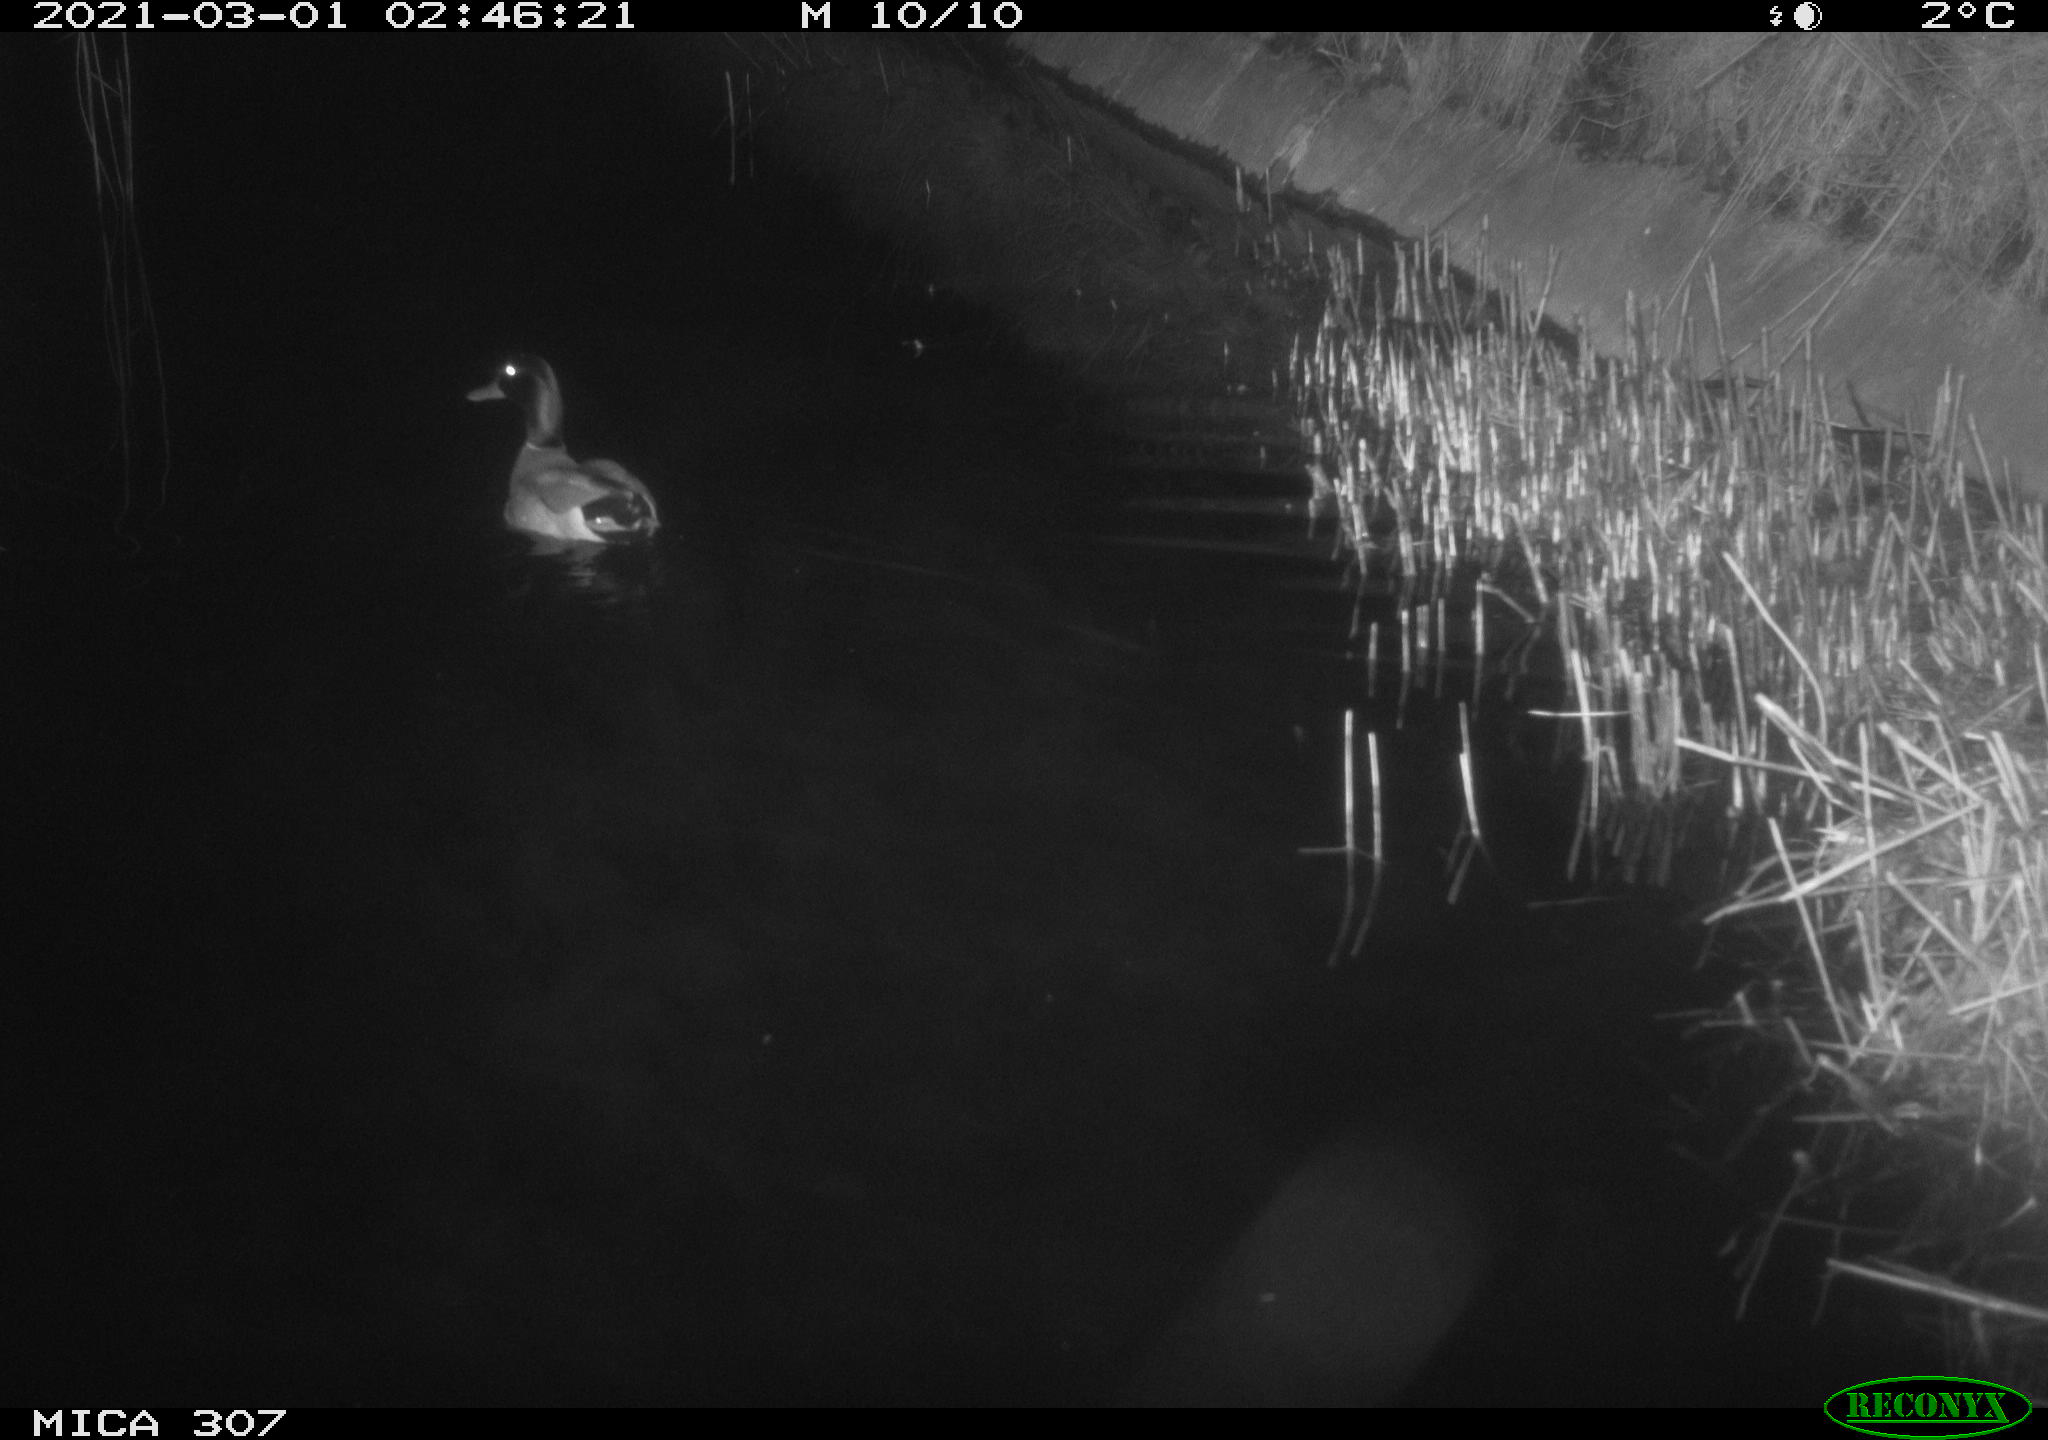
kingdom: Animalia
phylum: Chordata
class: Aves
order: Anseriformes
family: Anatidae
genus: Anas
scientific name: Anas platyrhynchos
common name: Mallard
